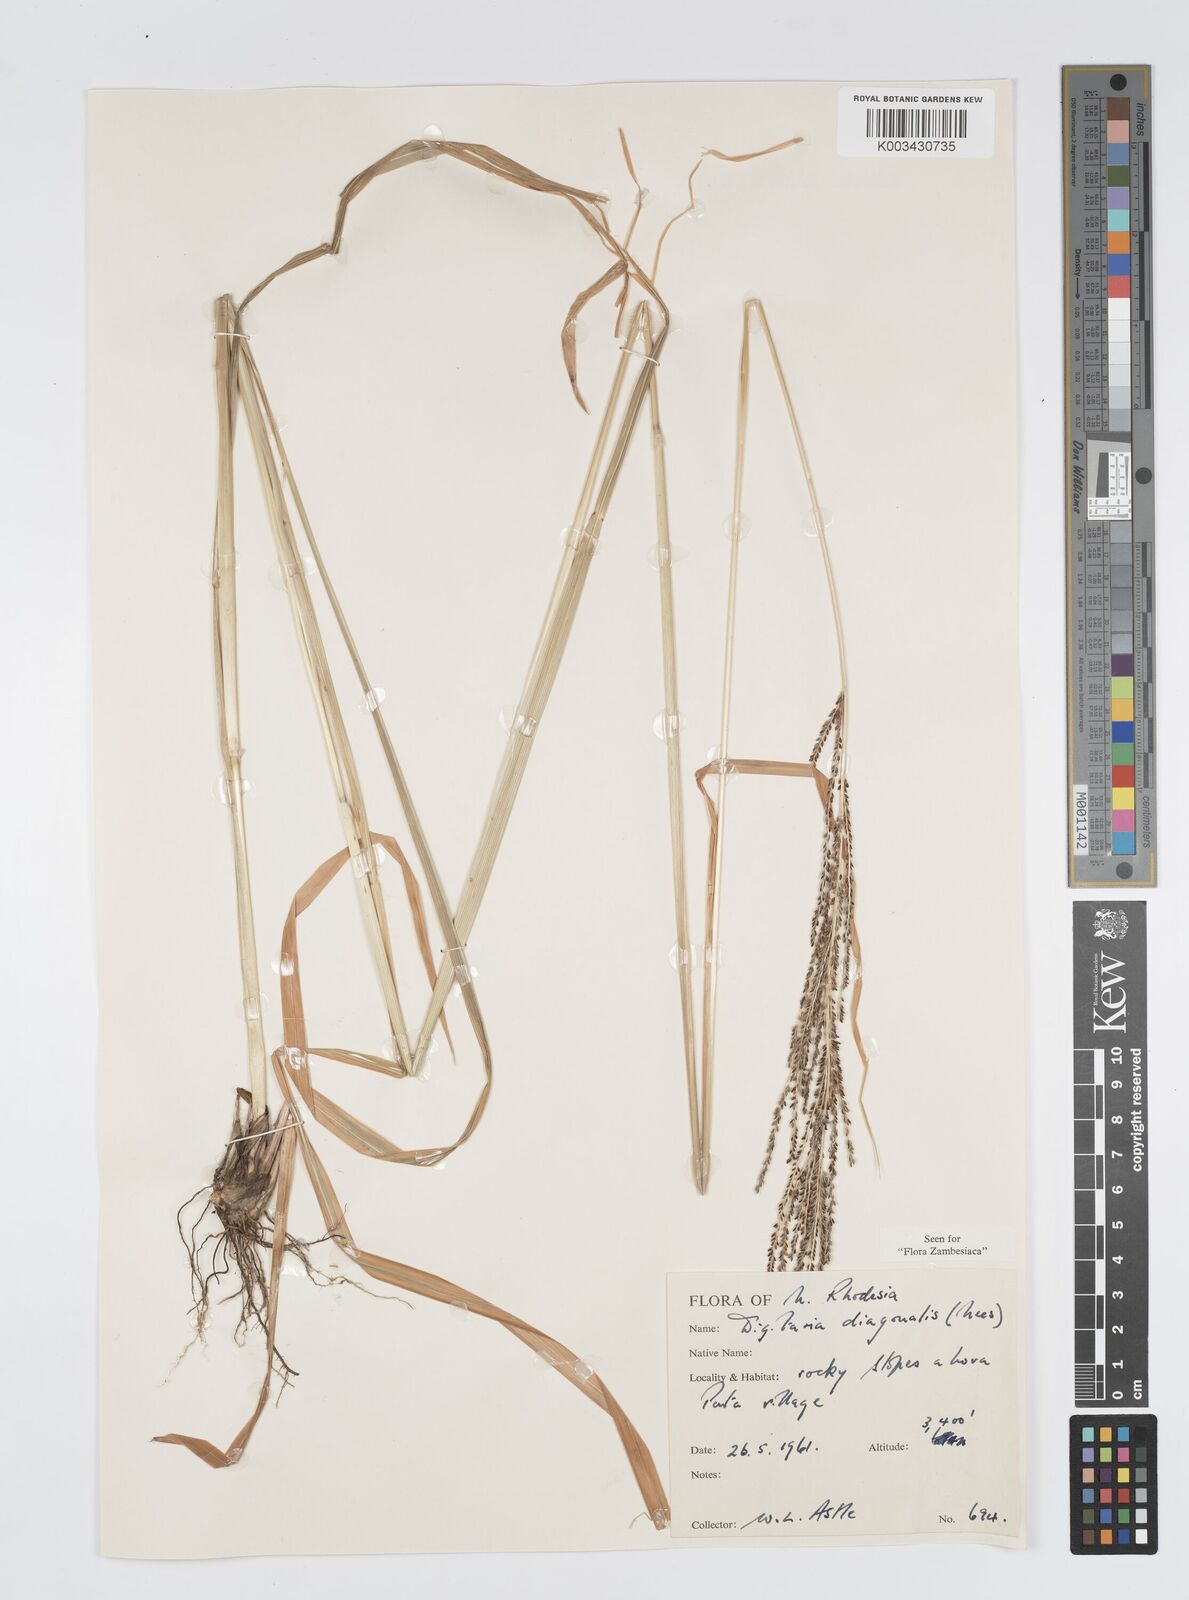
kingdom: Plantae
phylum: Tracheophyta
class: Liliopsida
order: Poales
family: Poaceae
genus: Digitaria
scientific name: Digitaria diagonalis
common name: Brown-seed finger grass
